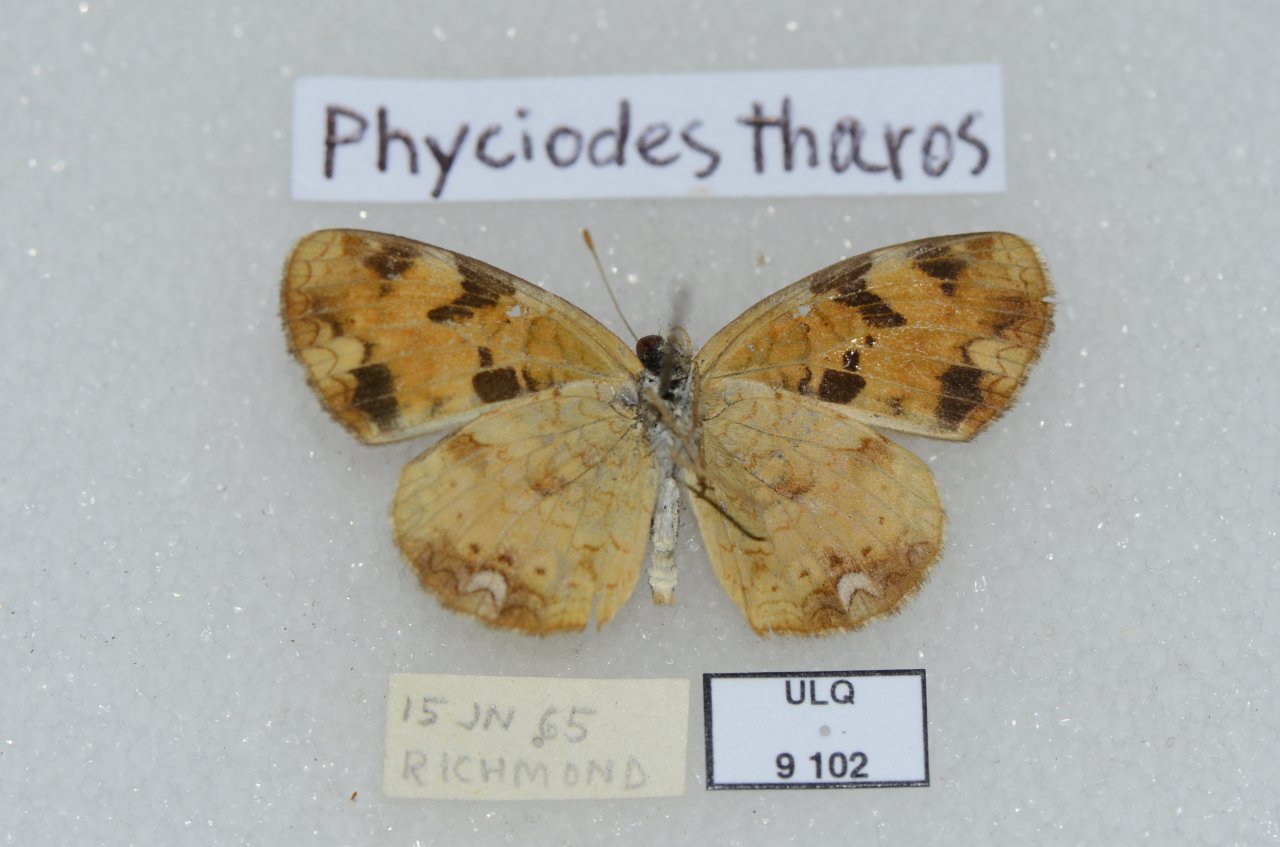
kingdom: Animalia
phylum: Arthropoda
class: Insecta
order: Lepidoptera
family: Nymphalidae
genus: Phyciodes
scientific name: Phyciodes tharos
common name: Northern Crescent
